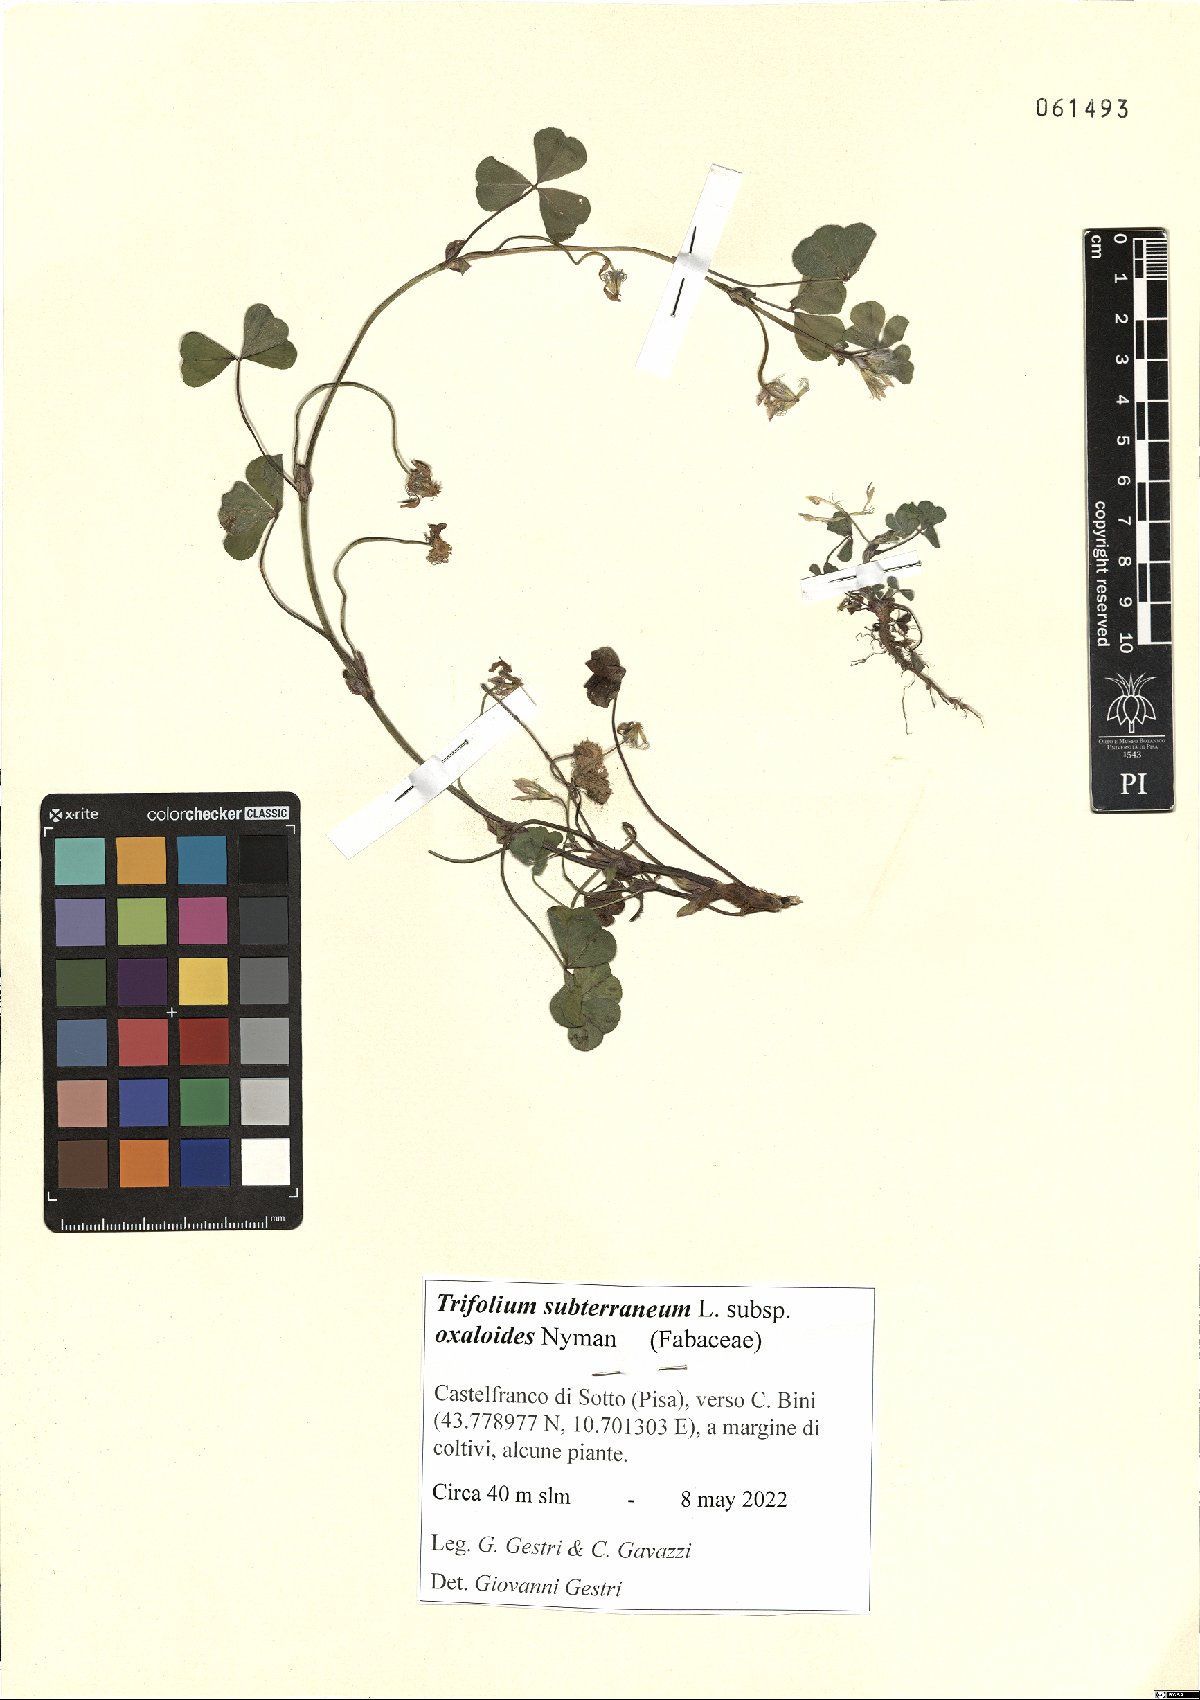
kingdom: Plantae
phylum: Tracheophyta
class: Magnoliopsida
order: Fabales
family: Fabaceae
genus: Trifolium
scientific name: Trifolium subterraneum
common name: Subterranean clover
